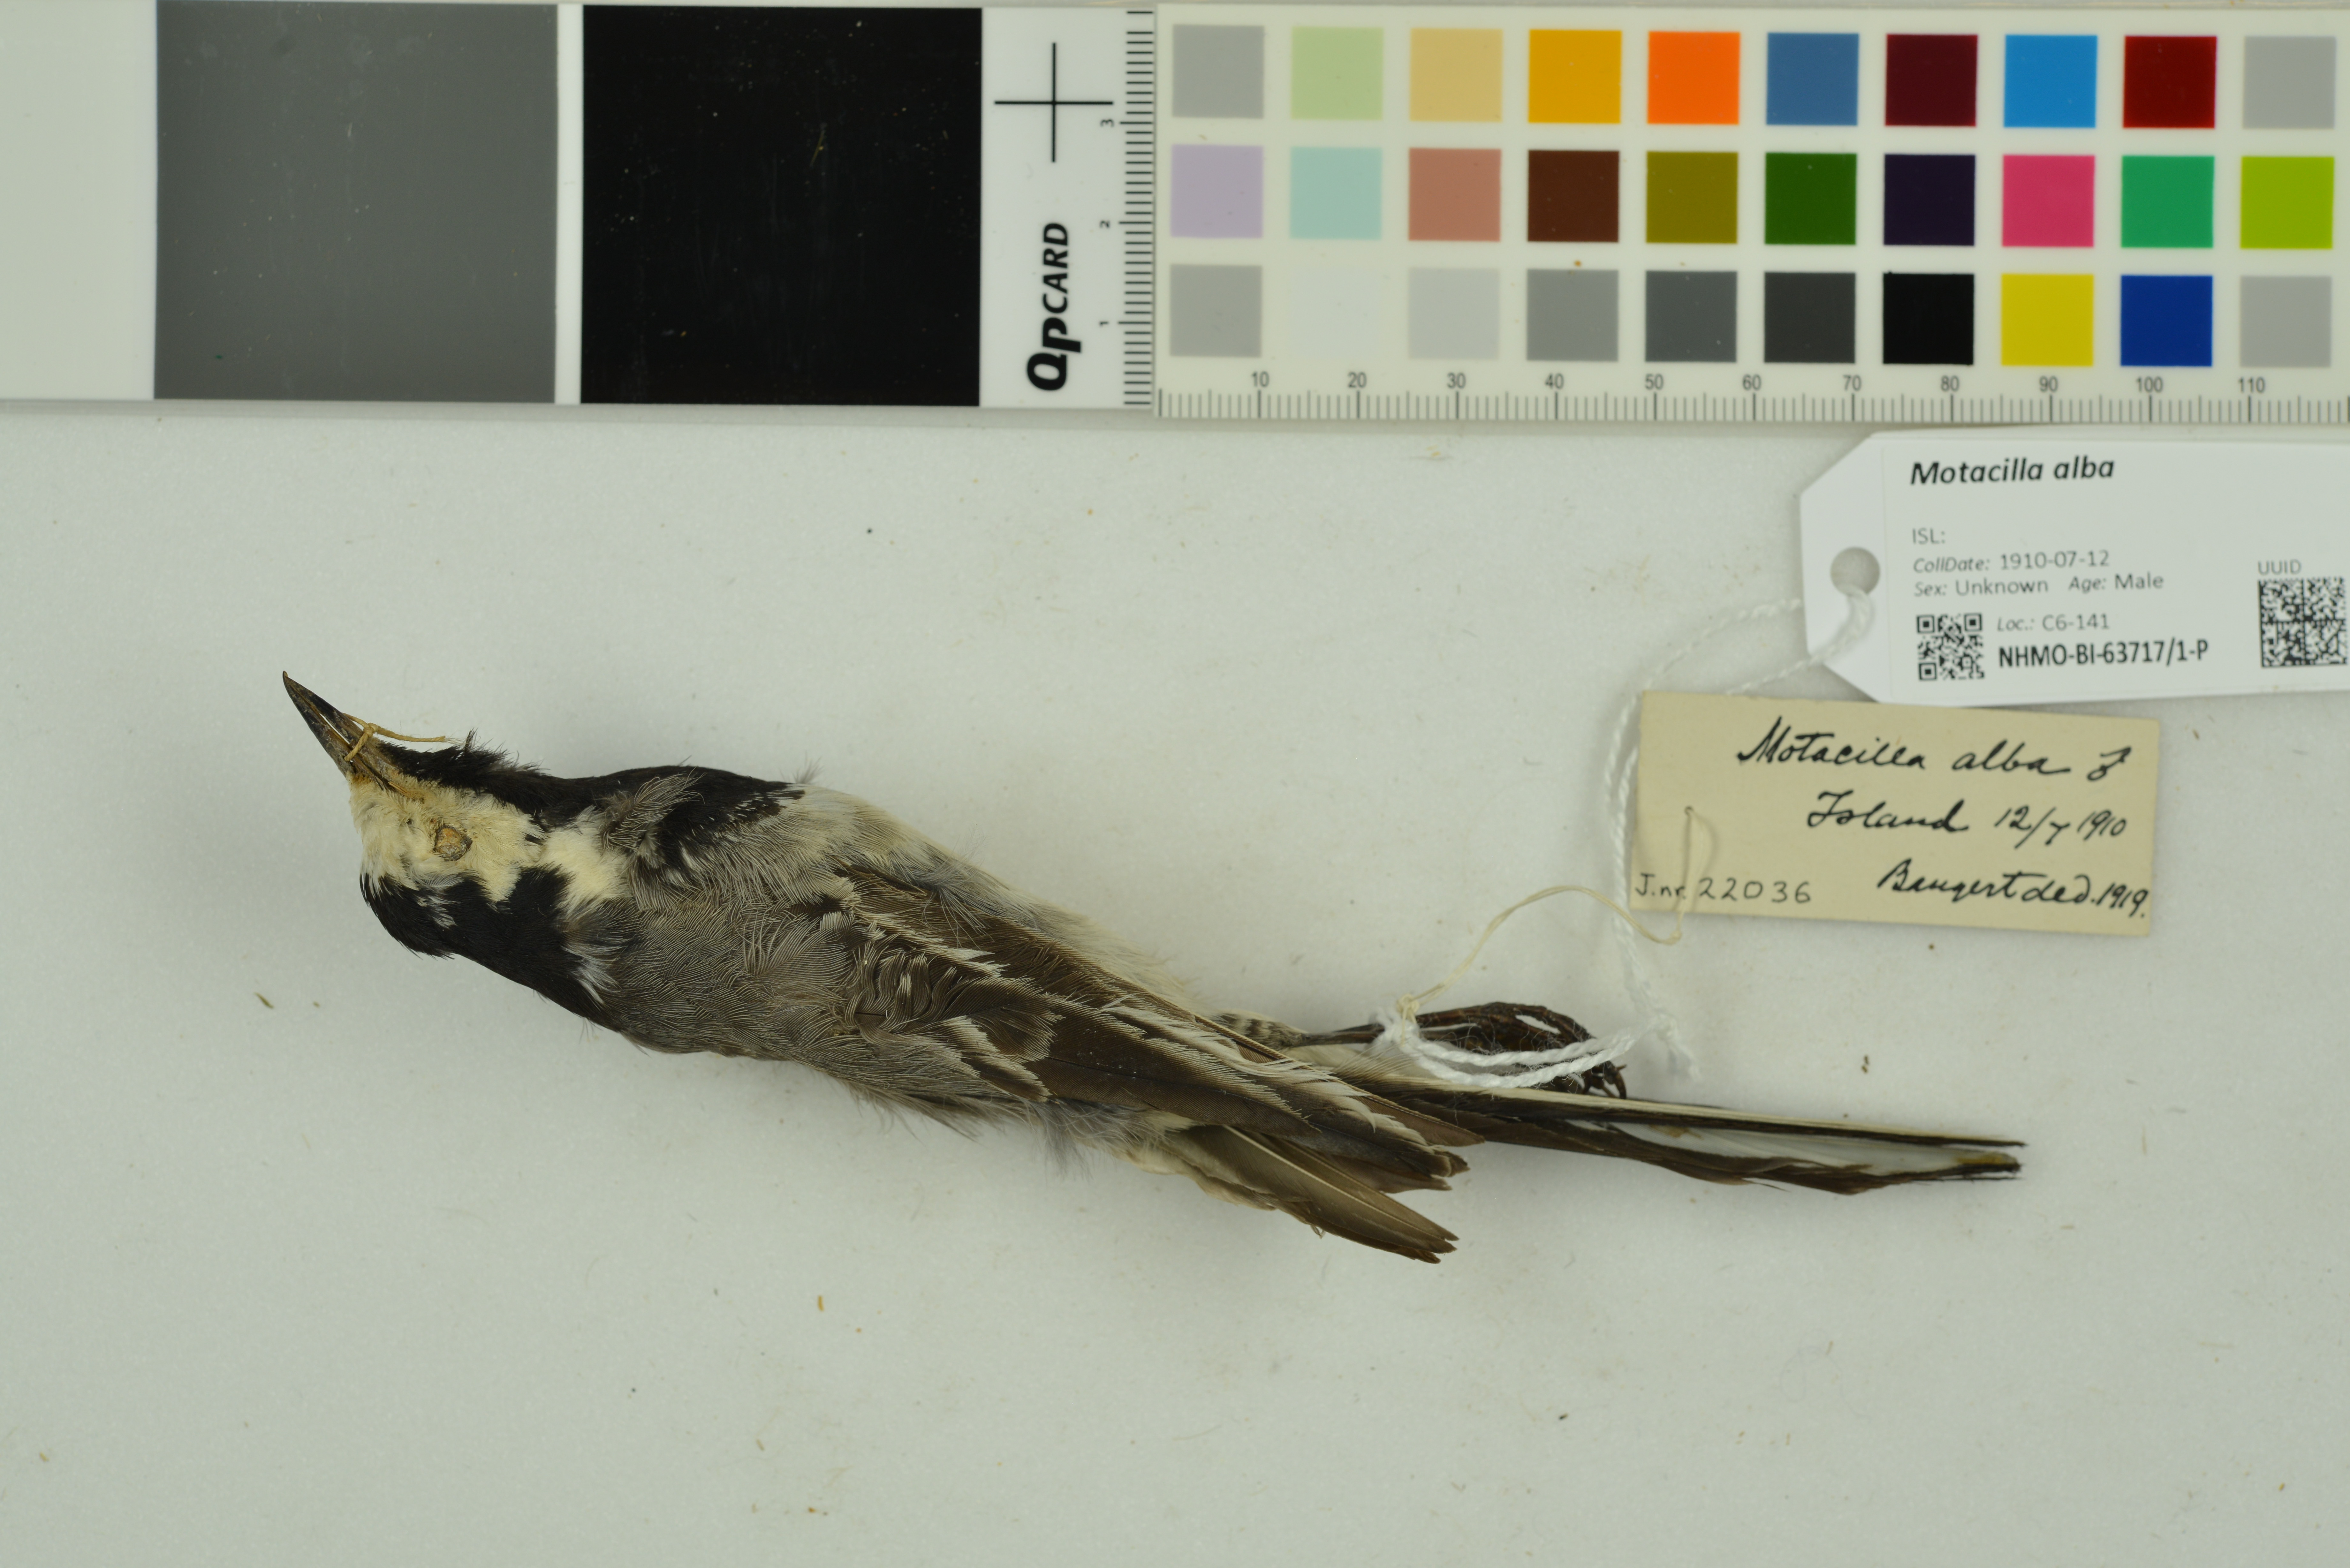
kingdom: Animalia
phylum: Chordata
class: Aves
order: Passeriformes
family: Motacillidae
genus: Motacilla
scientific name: Motacilla alba
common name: White wagtail
